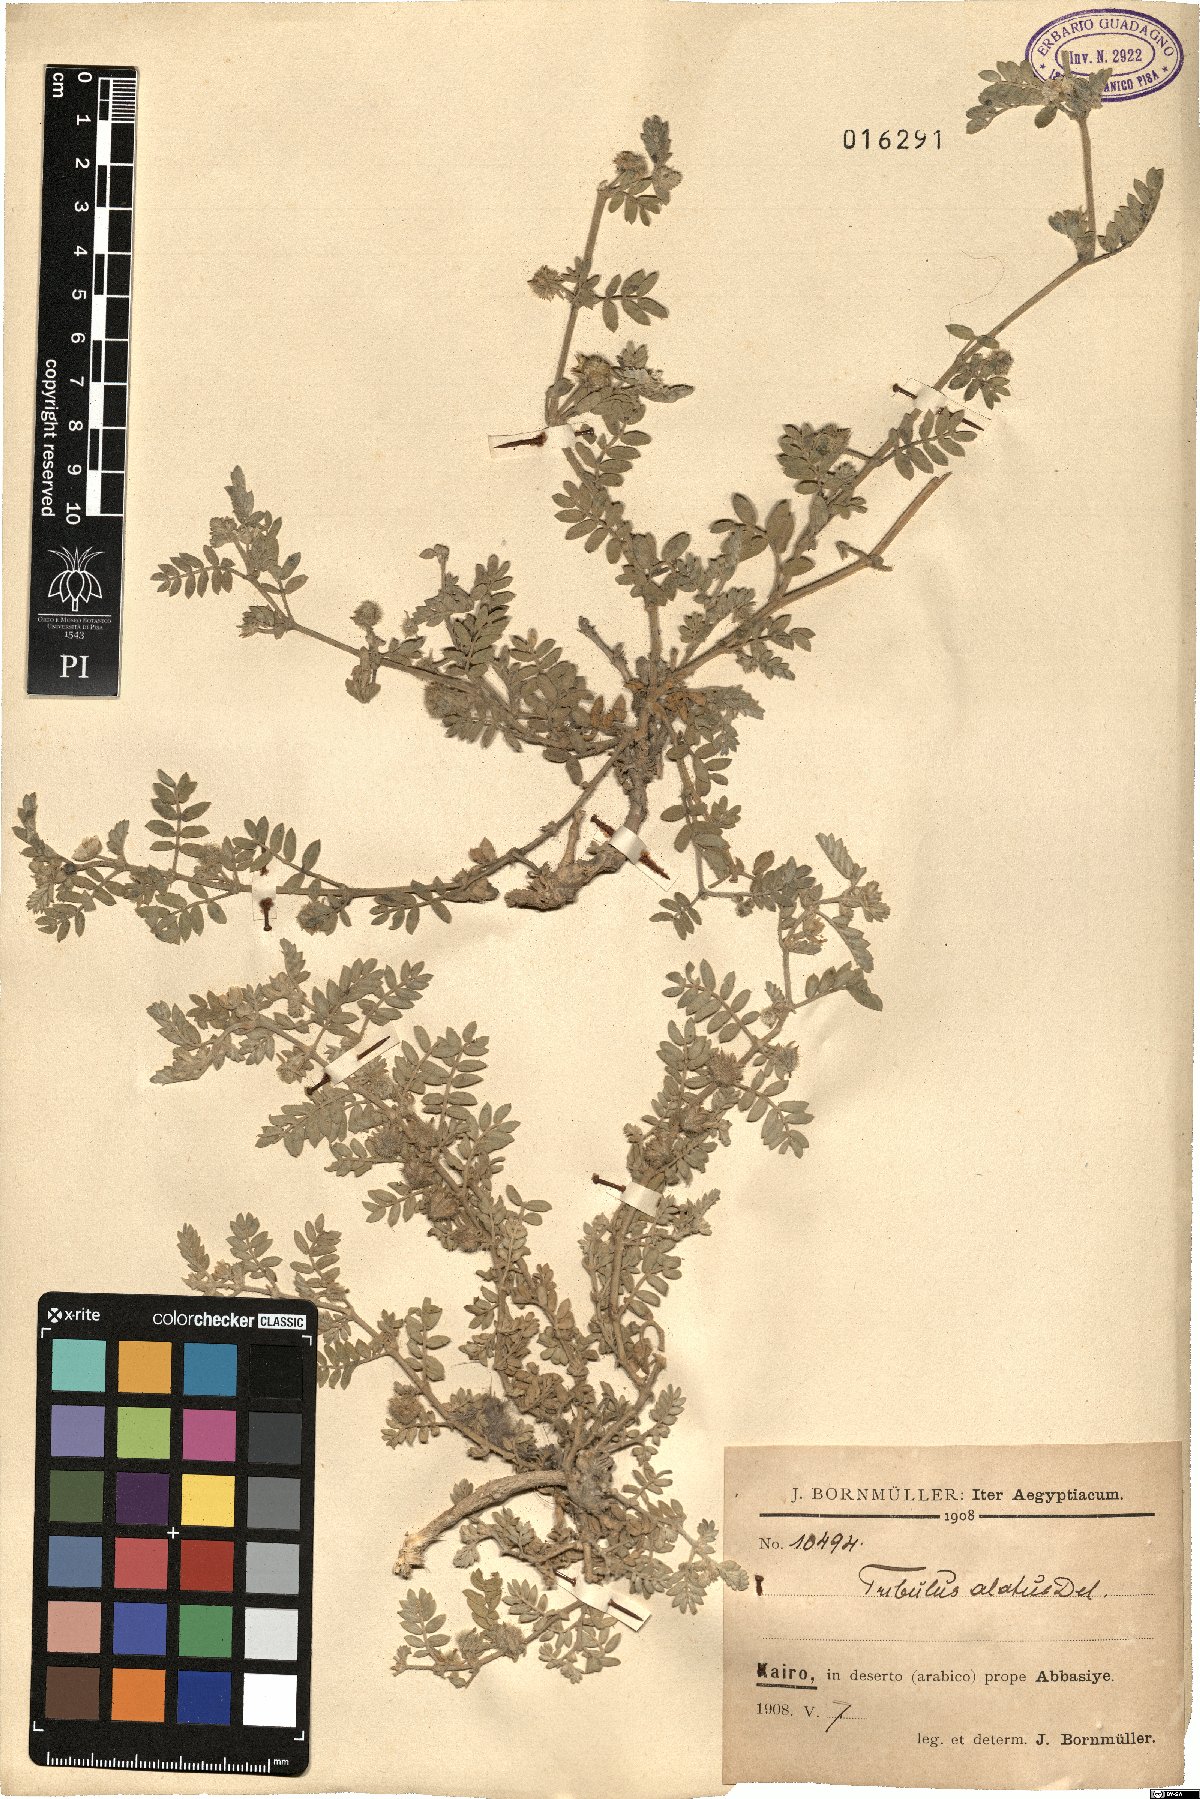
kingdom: Plantae
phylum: Tracheophyta
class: Magnoliopsida
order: Zygophyllales
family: Zygophyllaceae
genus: Tribulus
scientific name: Tribulus pentandrus
